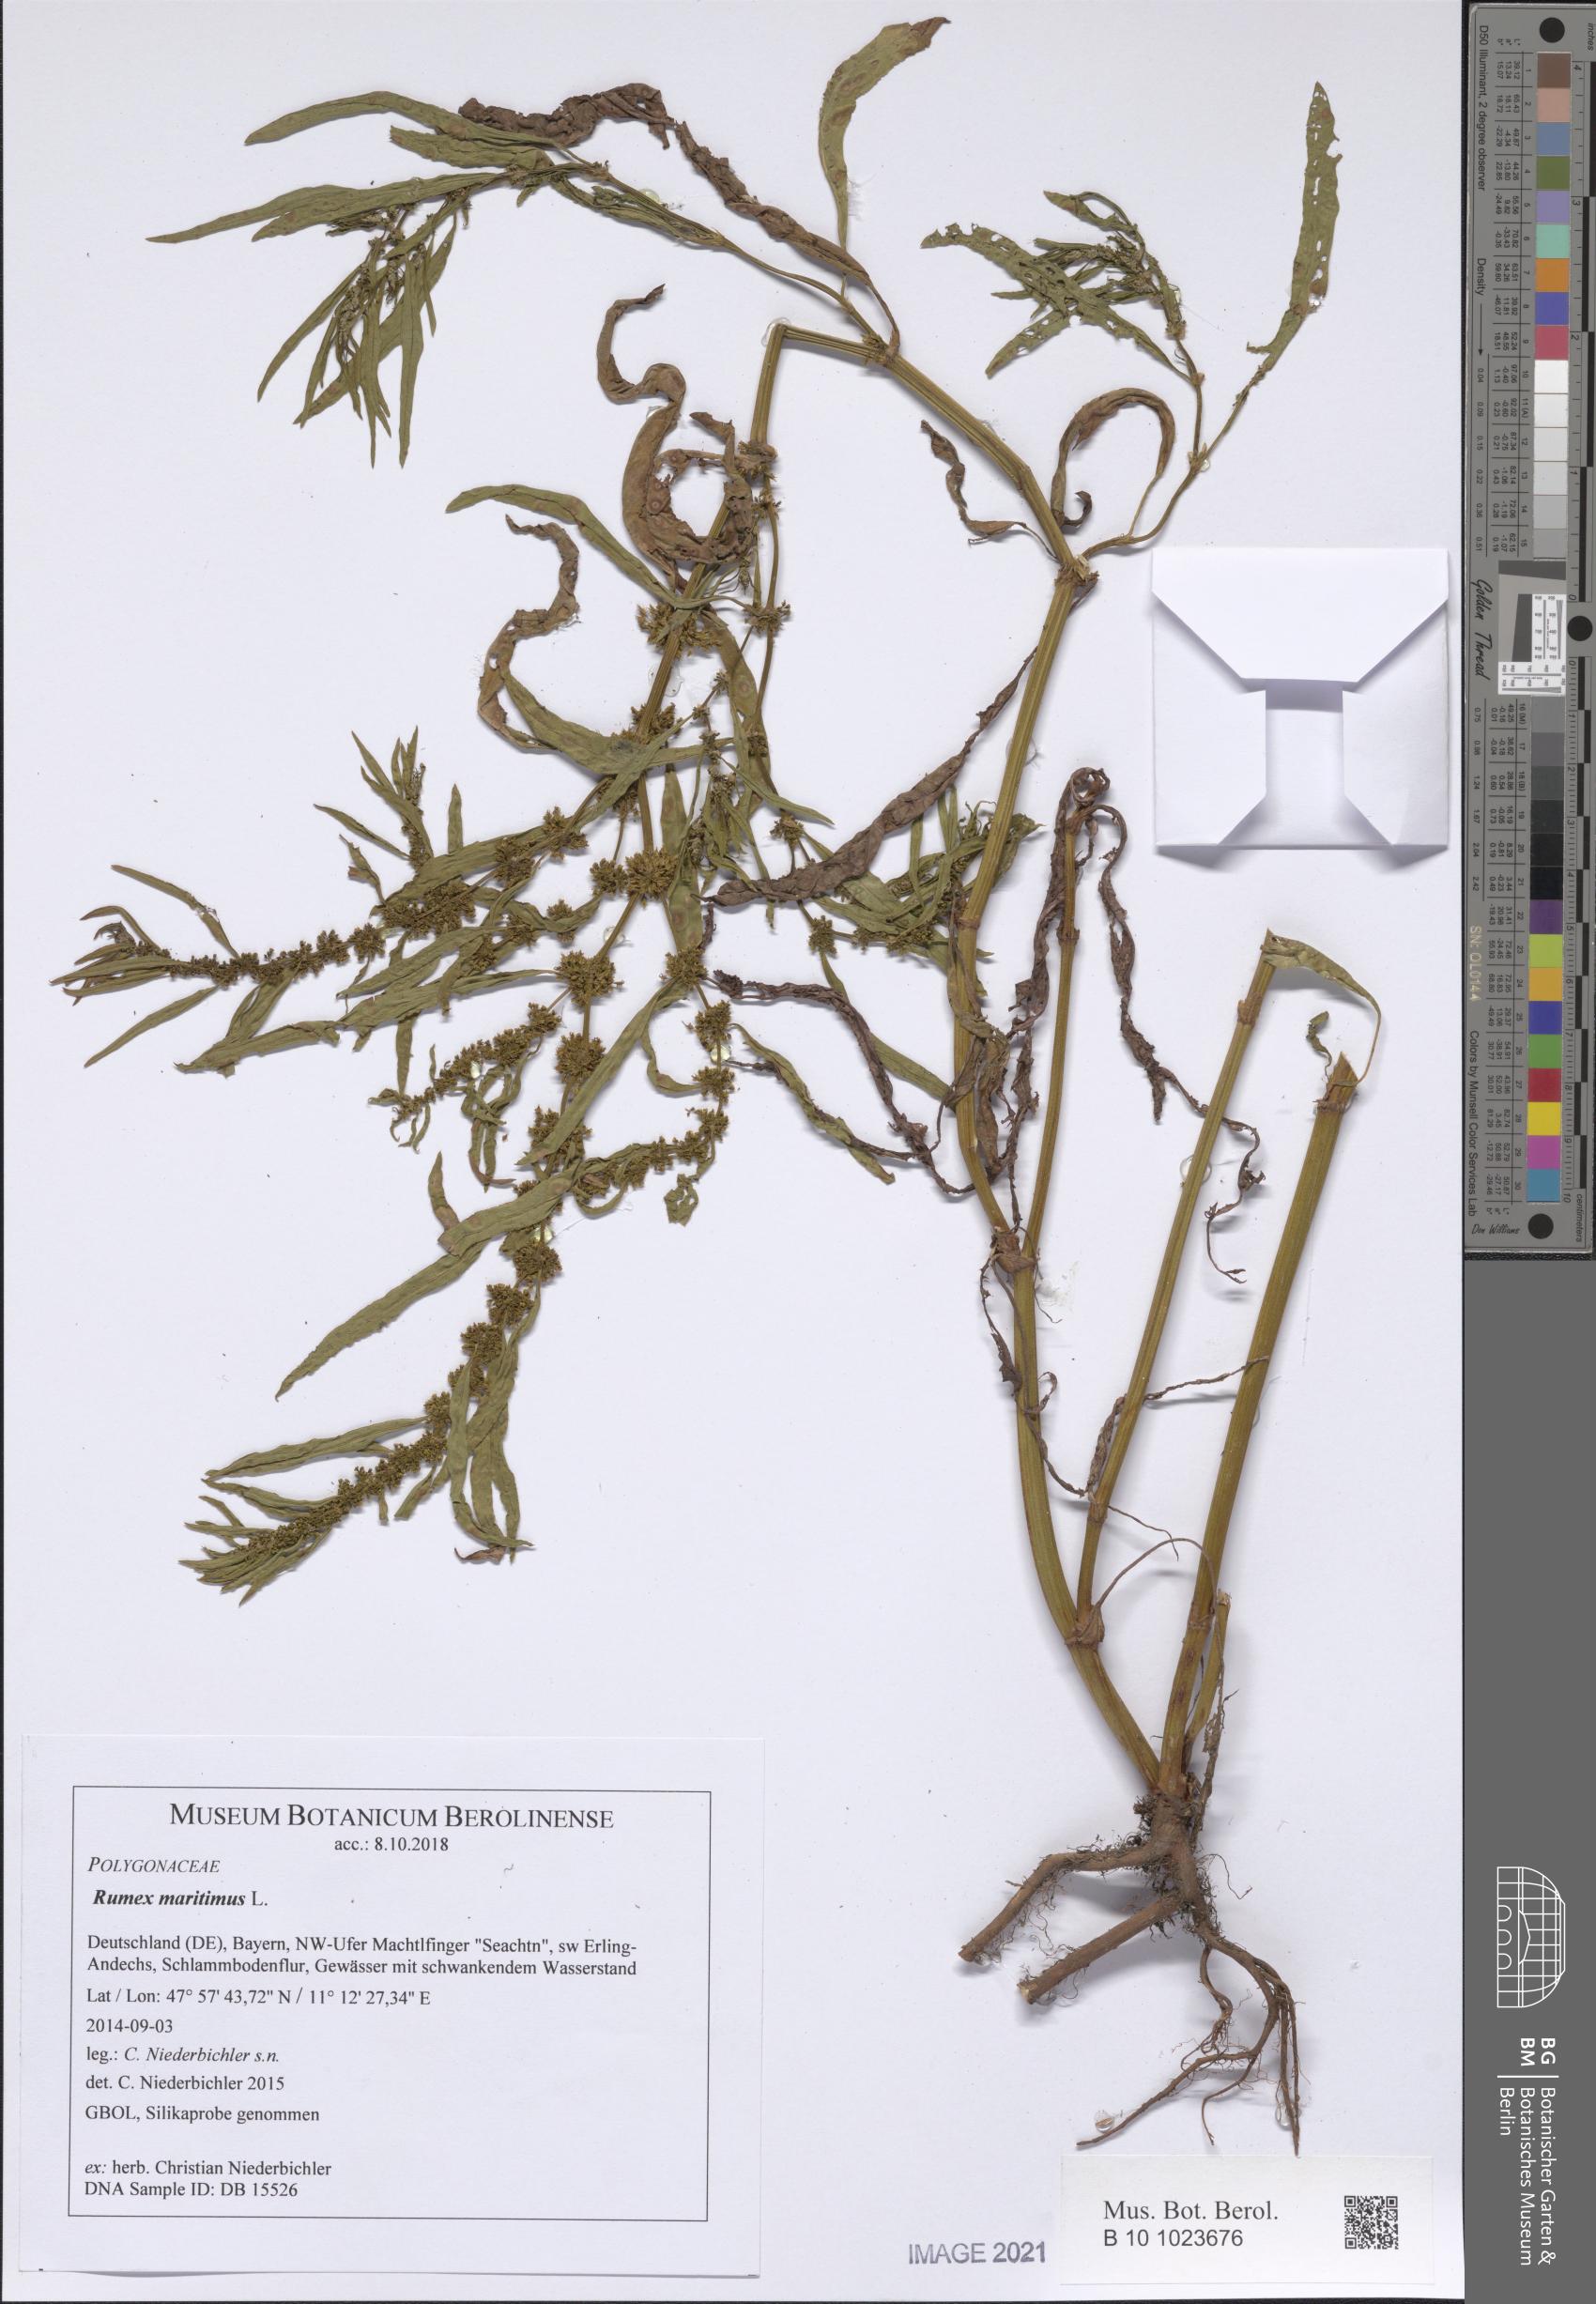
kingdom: Plantae
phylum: Tracheophyta
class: Magnoliopsida
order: Caryophyllales
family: Polygonaceae
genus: Rumex
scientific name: Rumex maritimus
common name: Golden dock
